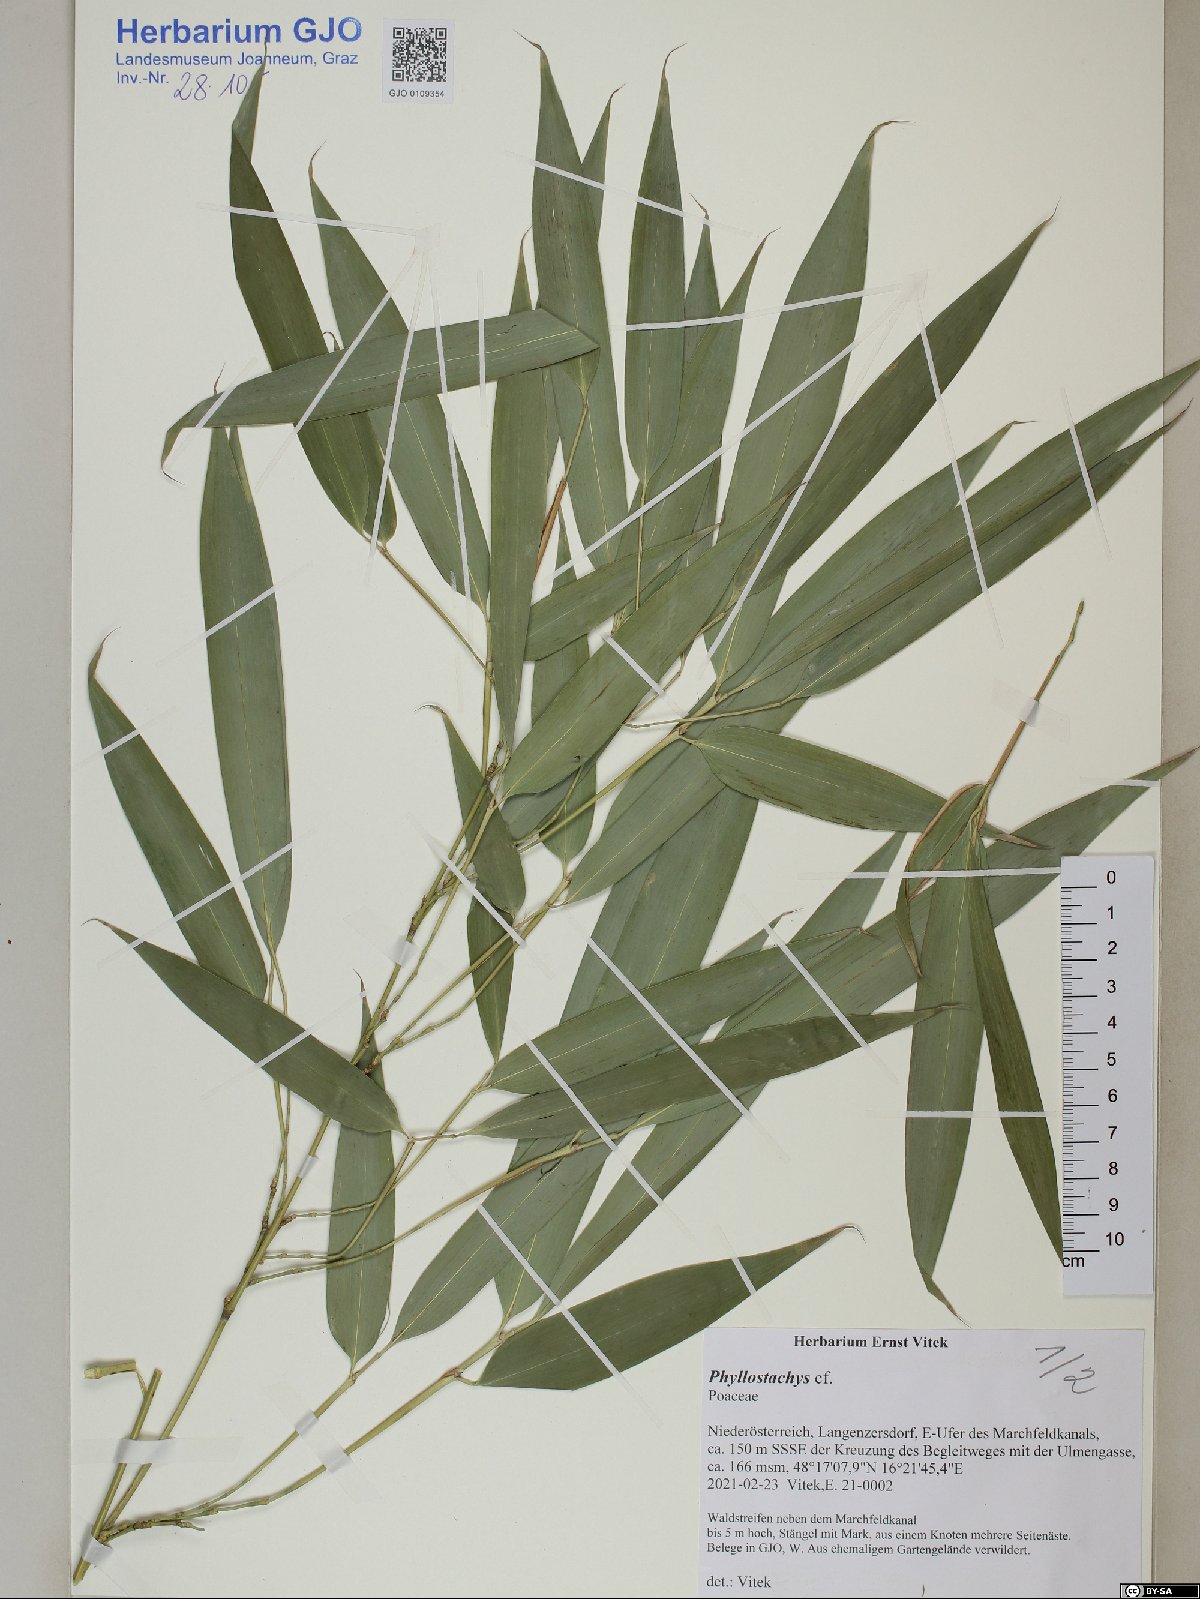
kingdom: Plantae
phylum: Tracheophyta
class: Liliopsida
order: Poales
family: Poaceae
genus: Phyllostachys
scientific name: Phyllostachys
